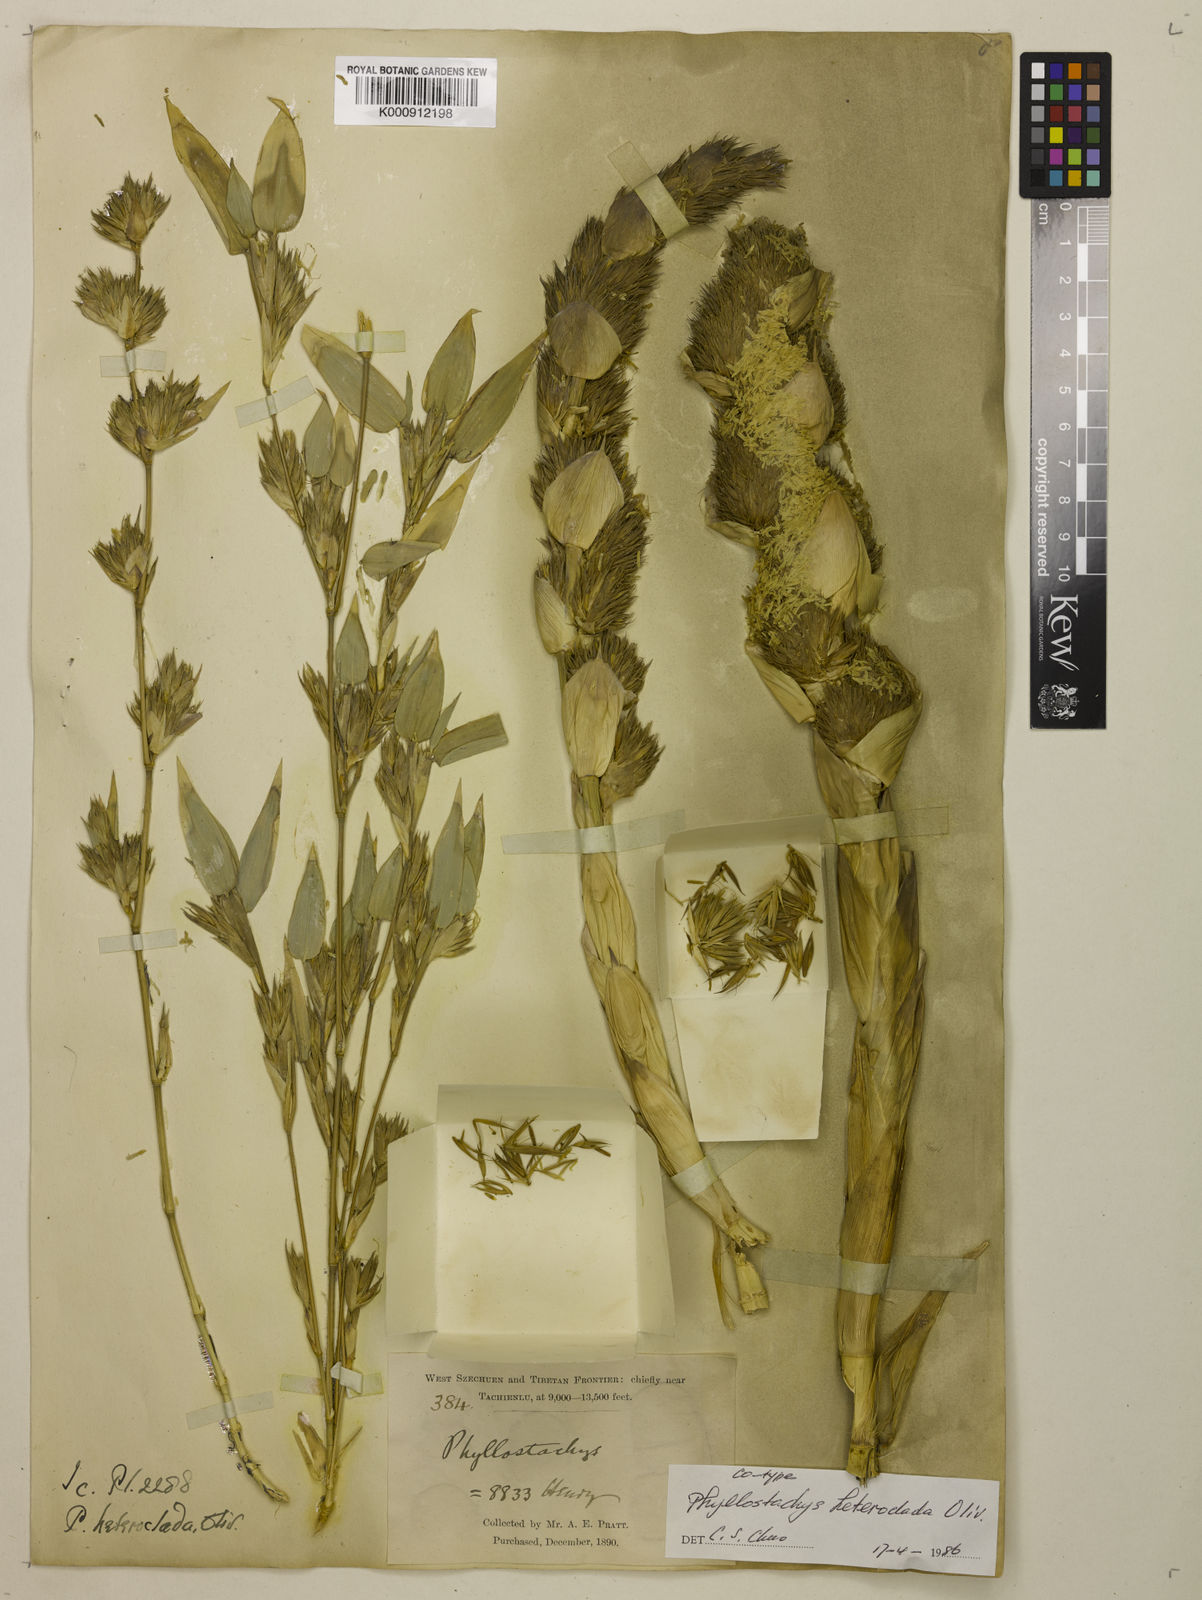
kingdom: Plantae
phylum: Tracheophyta
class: Liliopsida
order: Poales
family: Poaceae
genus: Phyllostachys
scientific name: Phyllostachys heteroclada
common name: Fishscale bamboo
